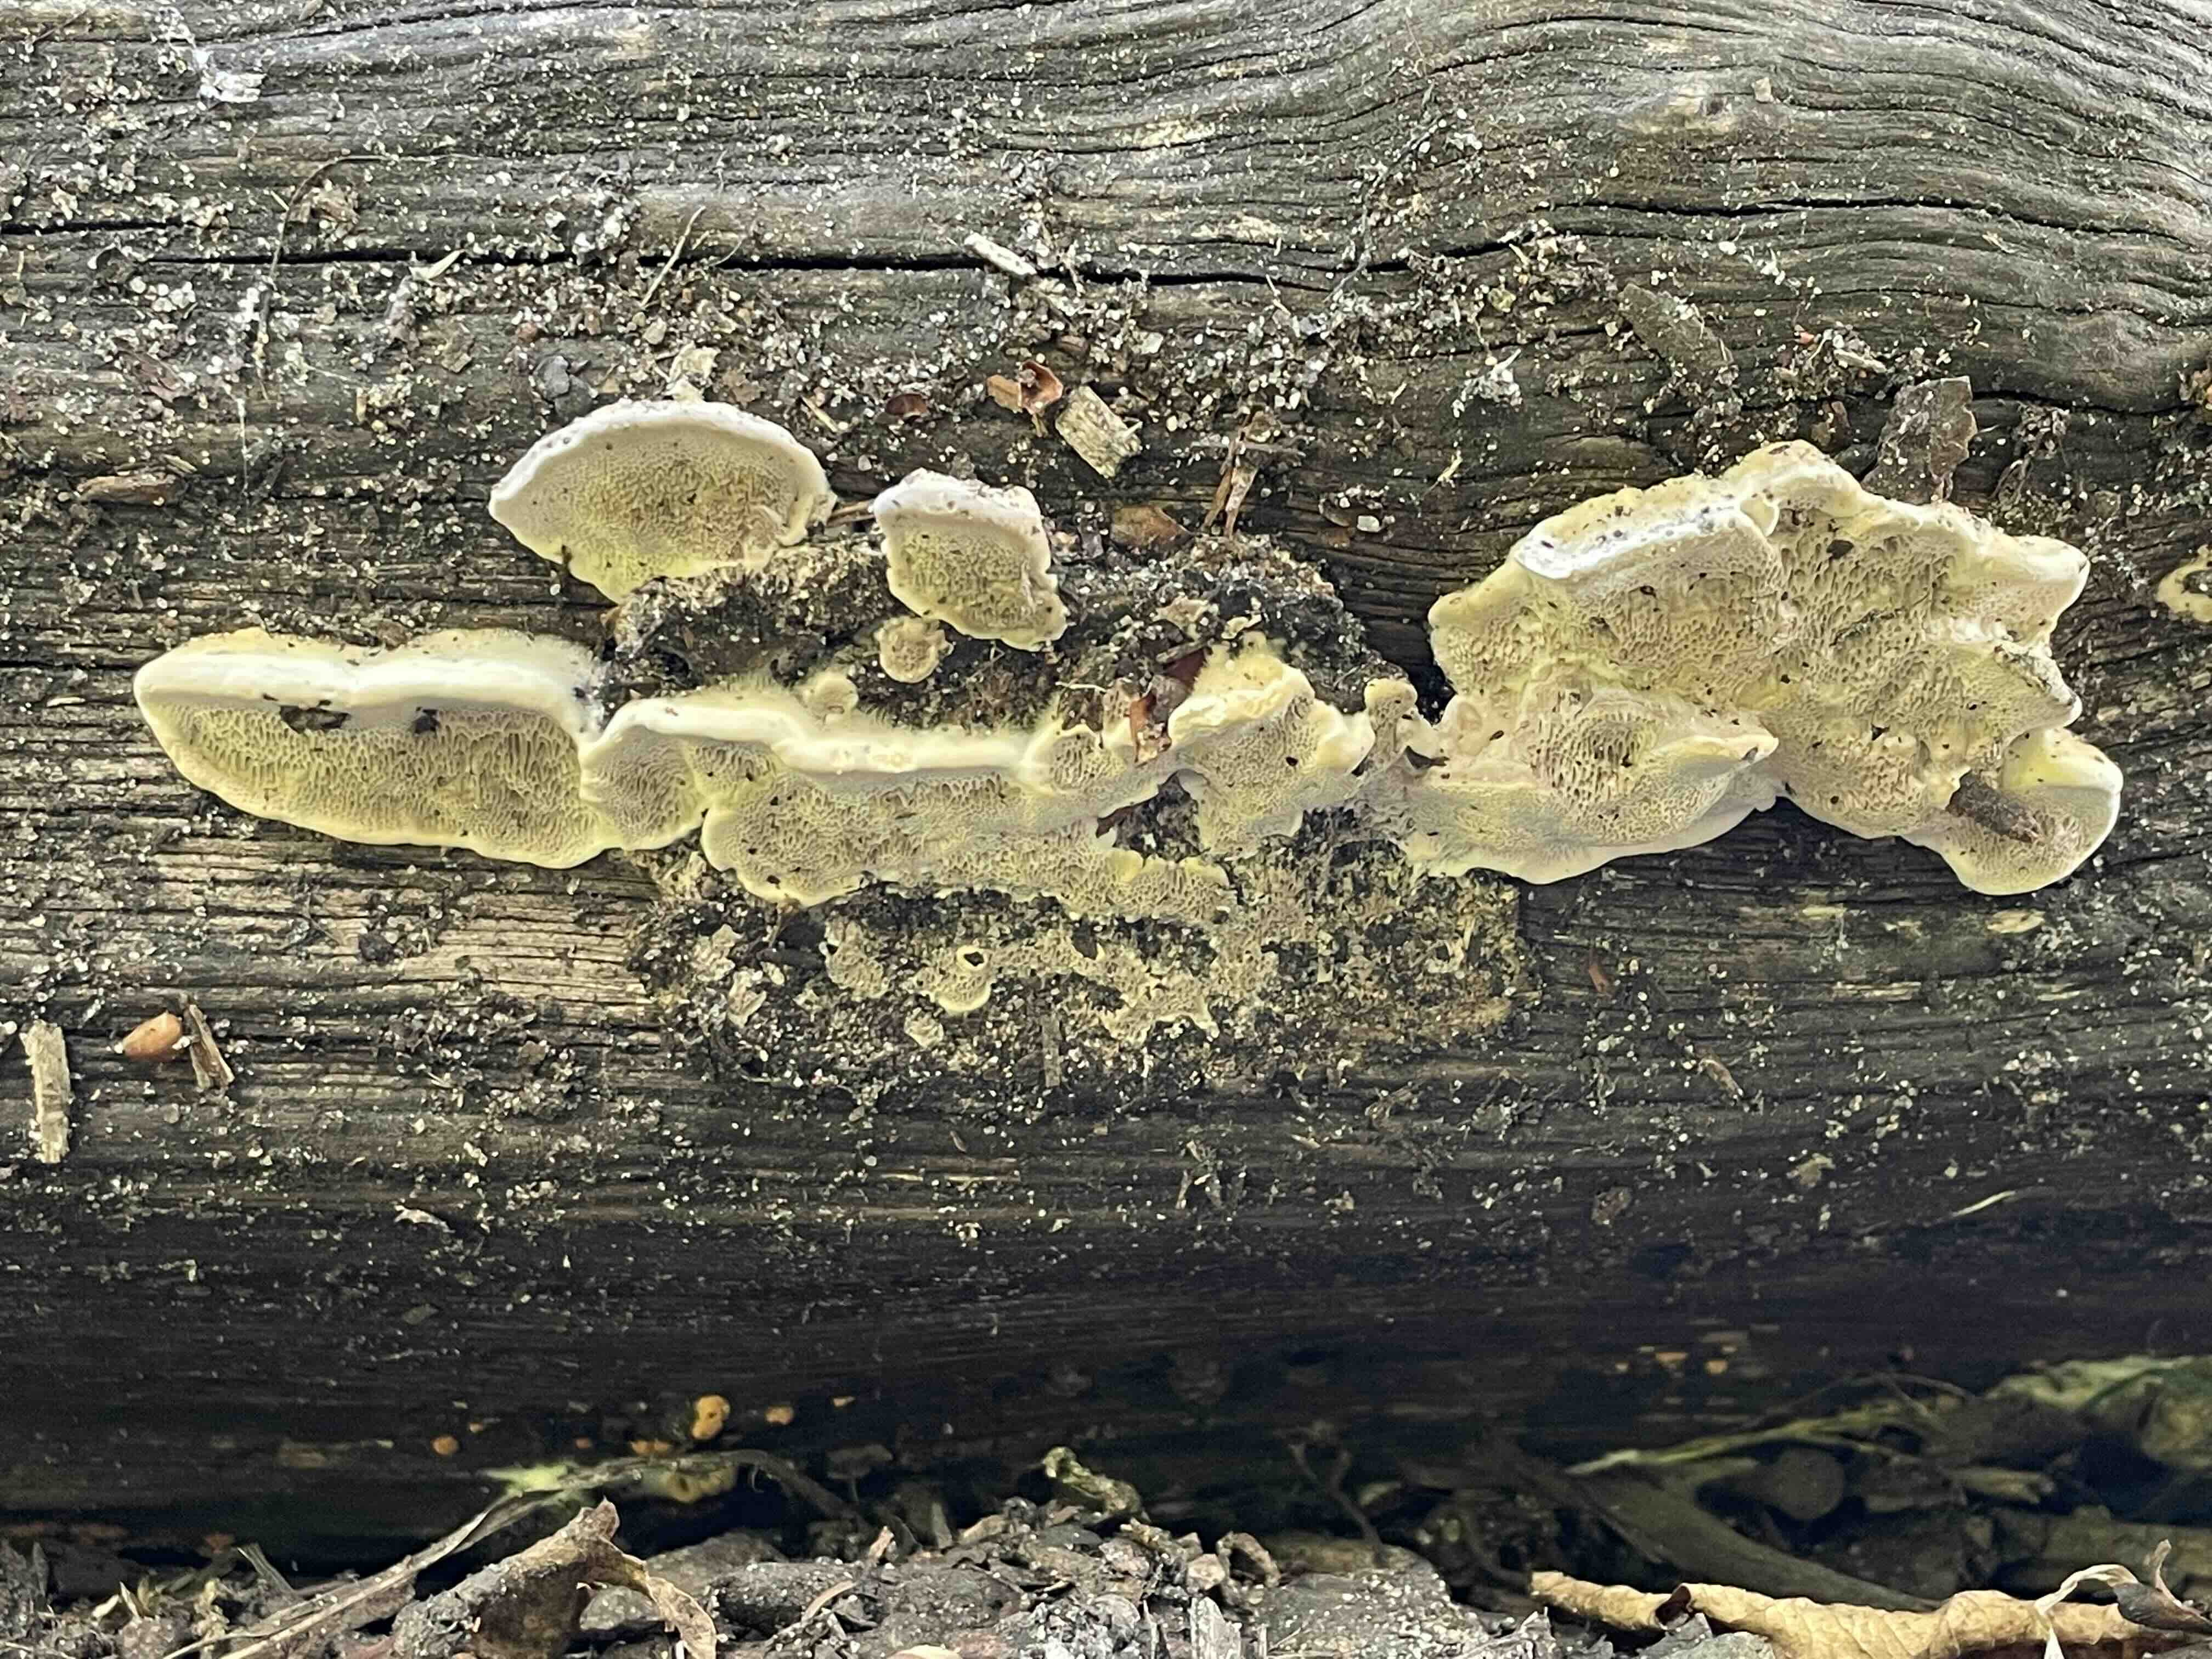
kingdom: Fungi
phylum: Basidiomycota
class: Agaricomycetes
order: Polyporales
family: Polyporaceae
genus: Trametes
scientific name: Trametes gibbosa
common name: puklet læderporesvamp
